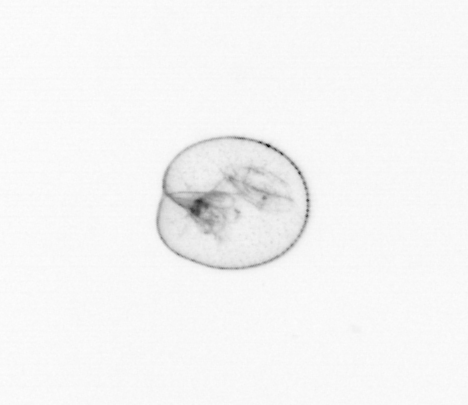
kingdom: Chromista
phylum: Myzozoa
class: Dinophyceae
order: Noctilucales
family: Noctilucaceae
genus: Noctiluca
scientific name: Noctiluca scintillans
